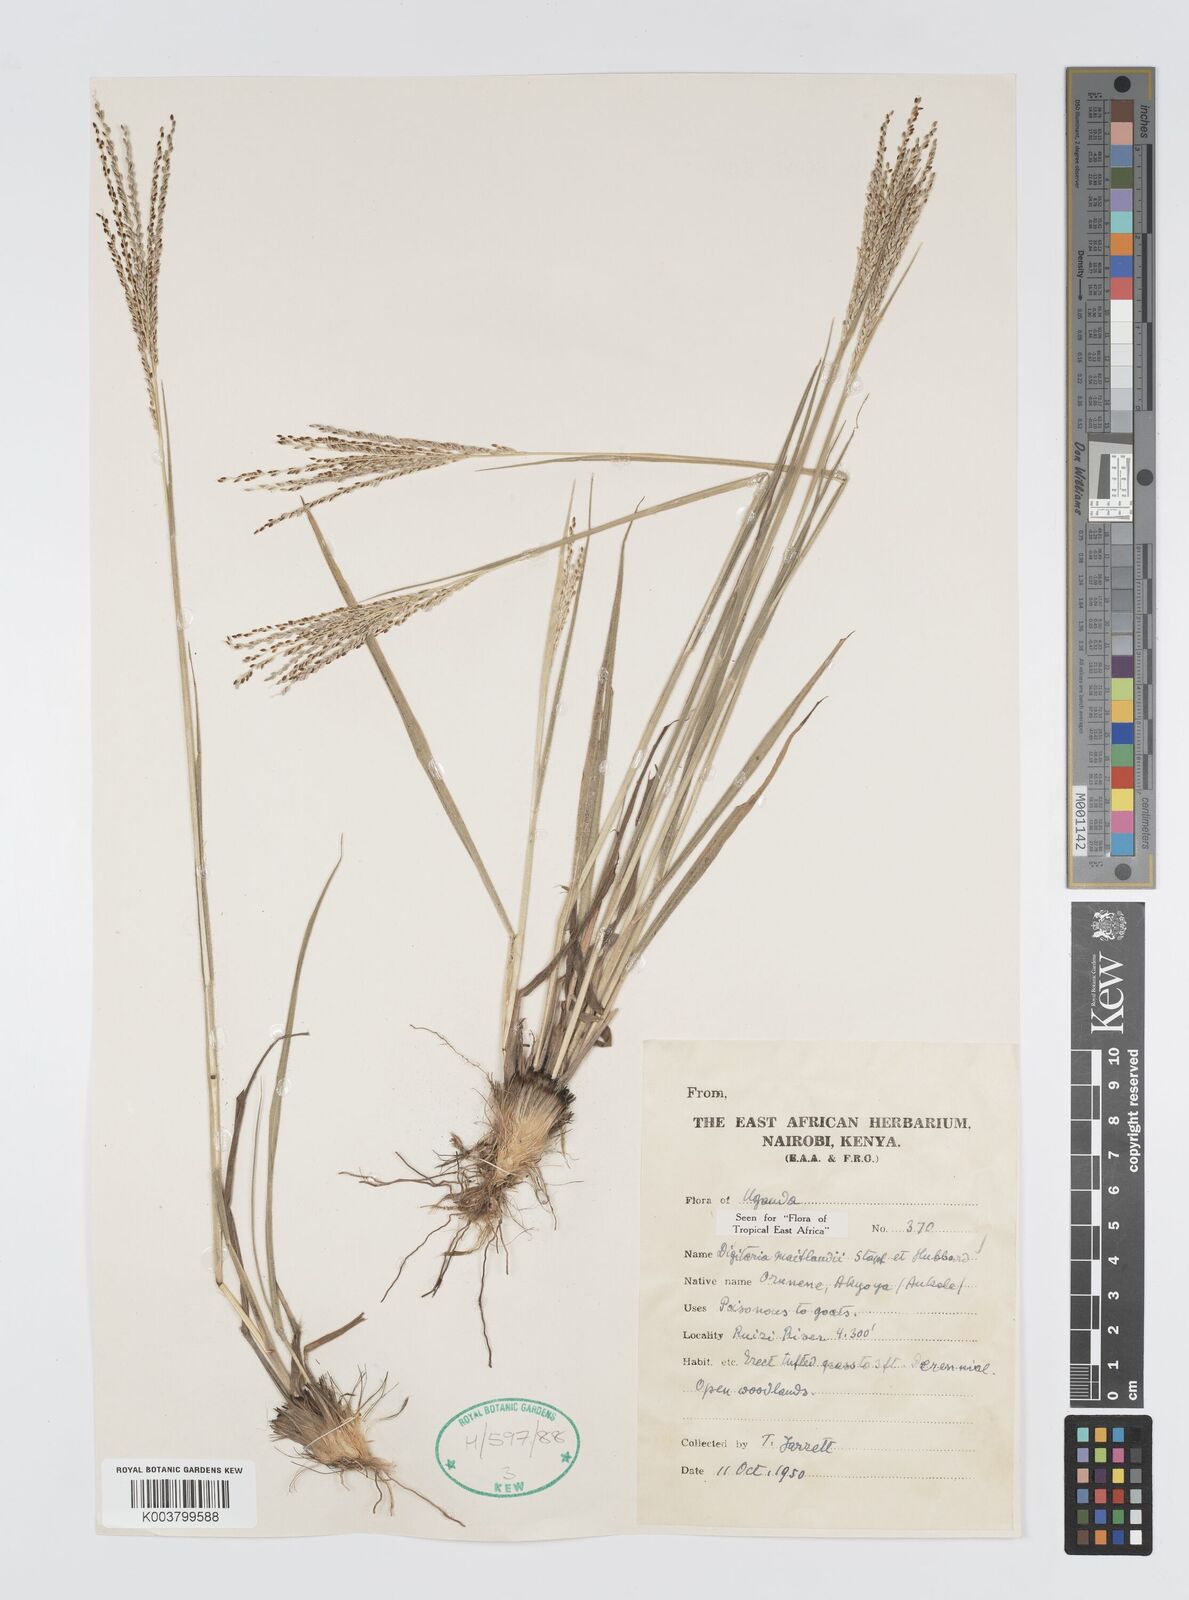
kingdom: Plantae
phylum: Tracheophyta
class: Liliopsida
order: Poales
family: Poaceae
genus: Digitaria
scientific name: Digitaria maitlandii
